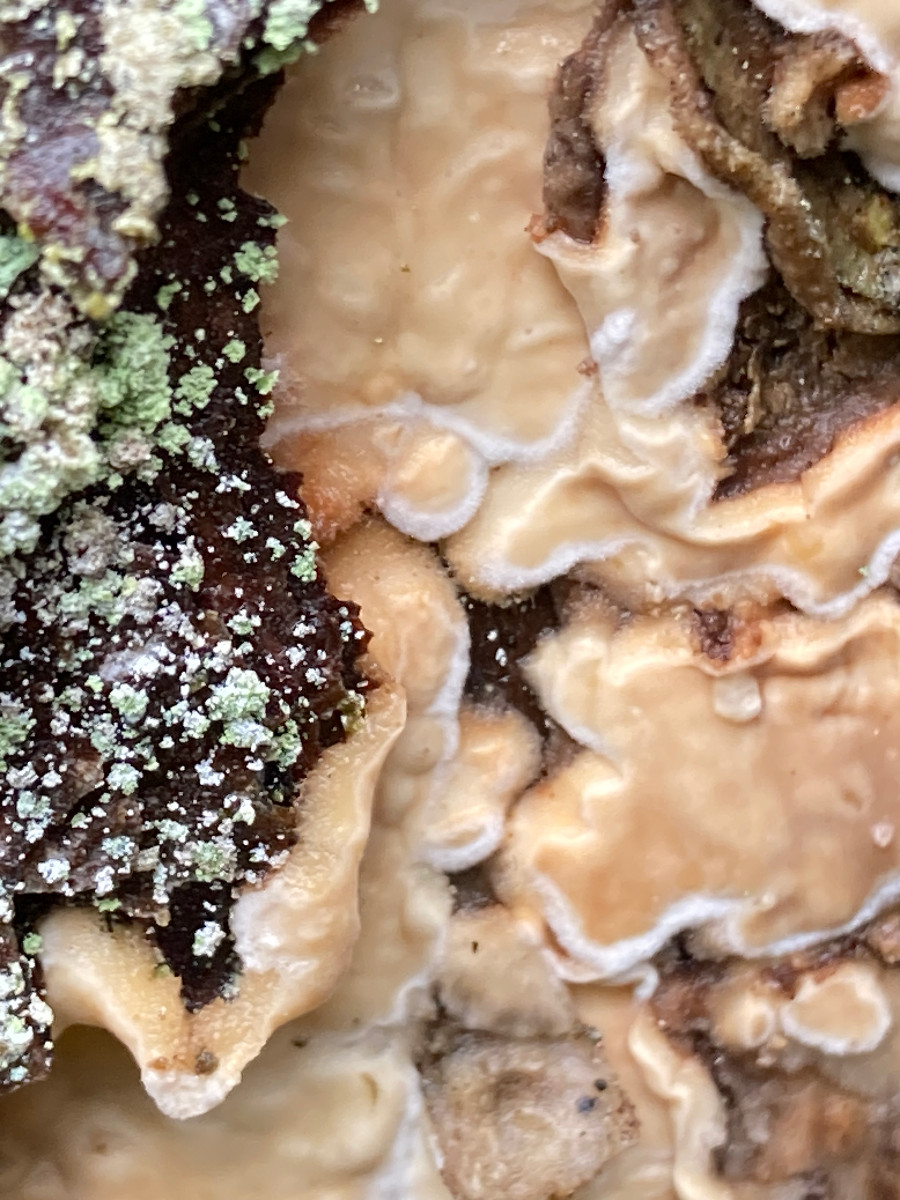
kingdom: Fungi
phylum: Basidiomycota
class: Agaricomycetes
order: Polyporales
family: Dacryobolaceae
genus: Dacryobolus
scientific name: Dacryobolus karstenii
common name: glat vulkanskorpe
